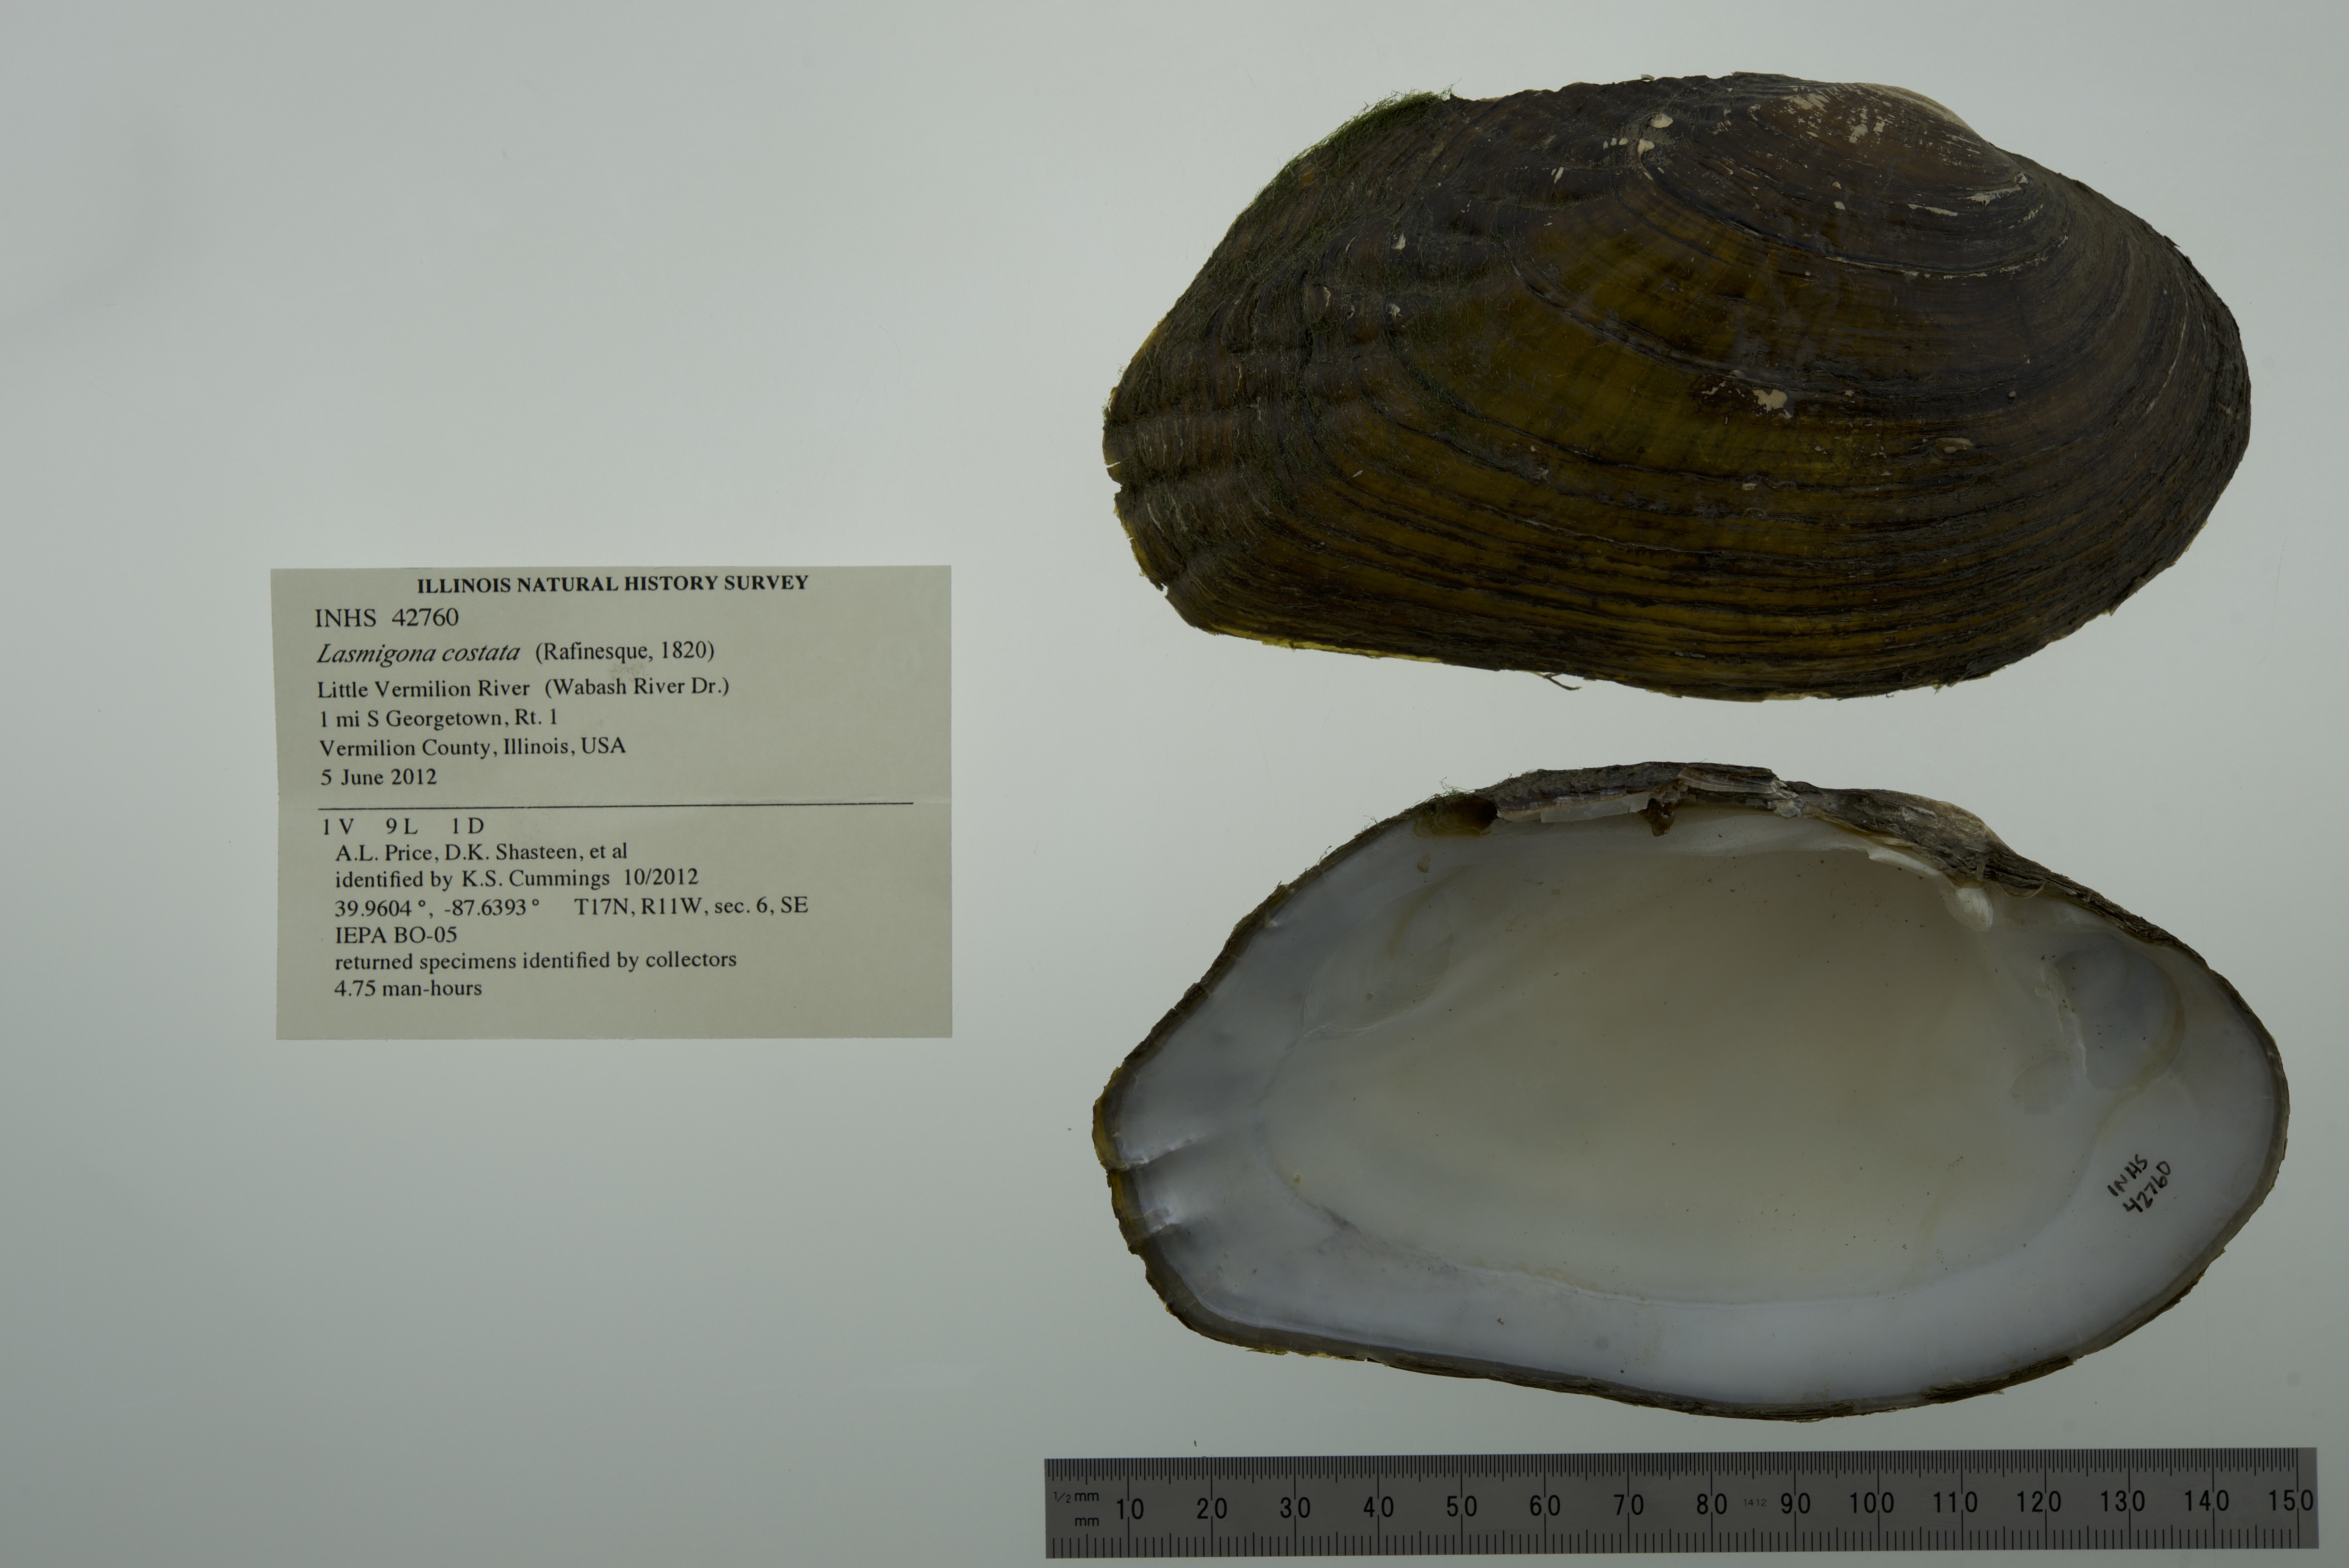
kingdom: Animalia
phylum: Mollusca
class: Bivalvia
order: Unionida
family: Unionidae
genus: Lasmigona
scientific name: Lasmigona costata
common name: Flutedshell
